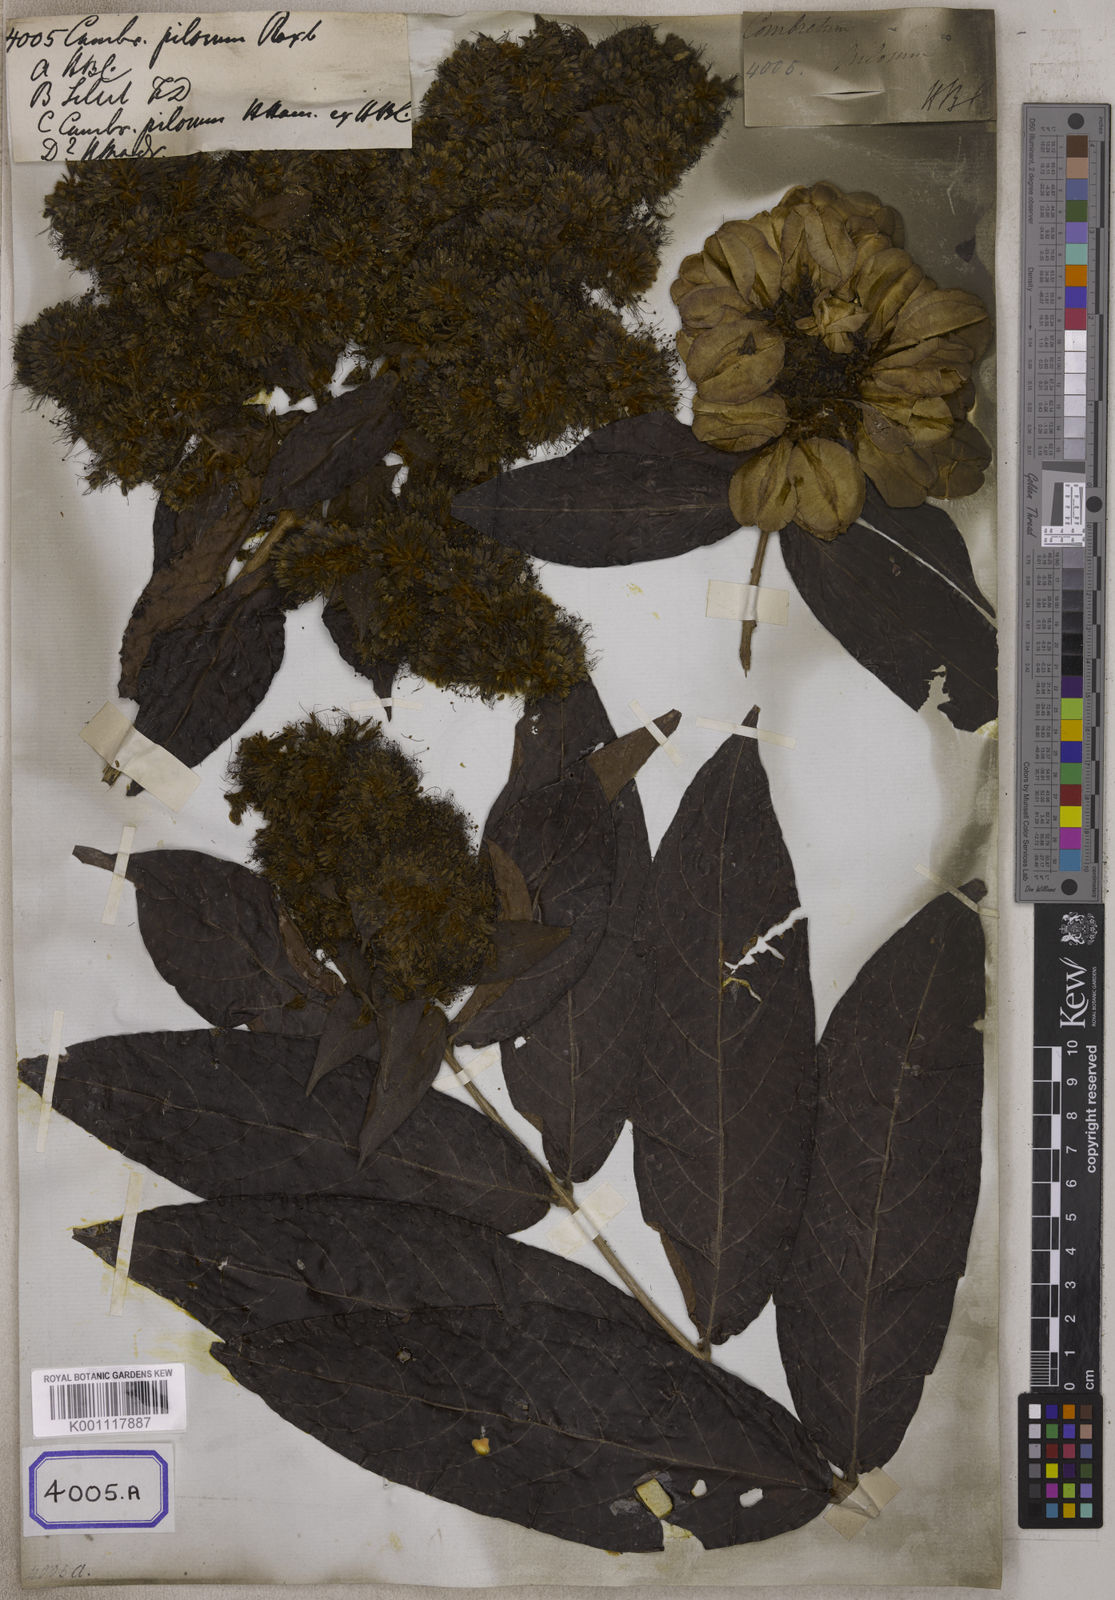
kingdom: Plantae
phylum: Tracheophyta
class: Magnoliopsida
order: Myrtales
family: Combretaceae
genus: Combretum
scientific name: Combretum
